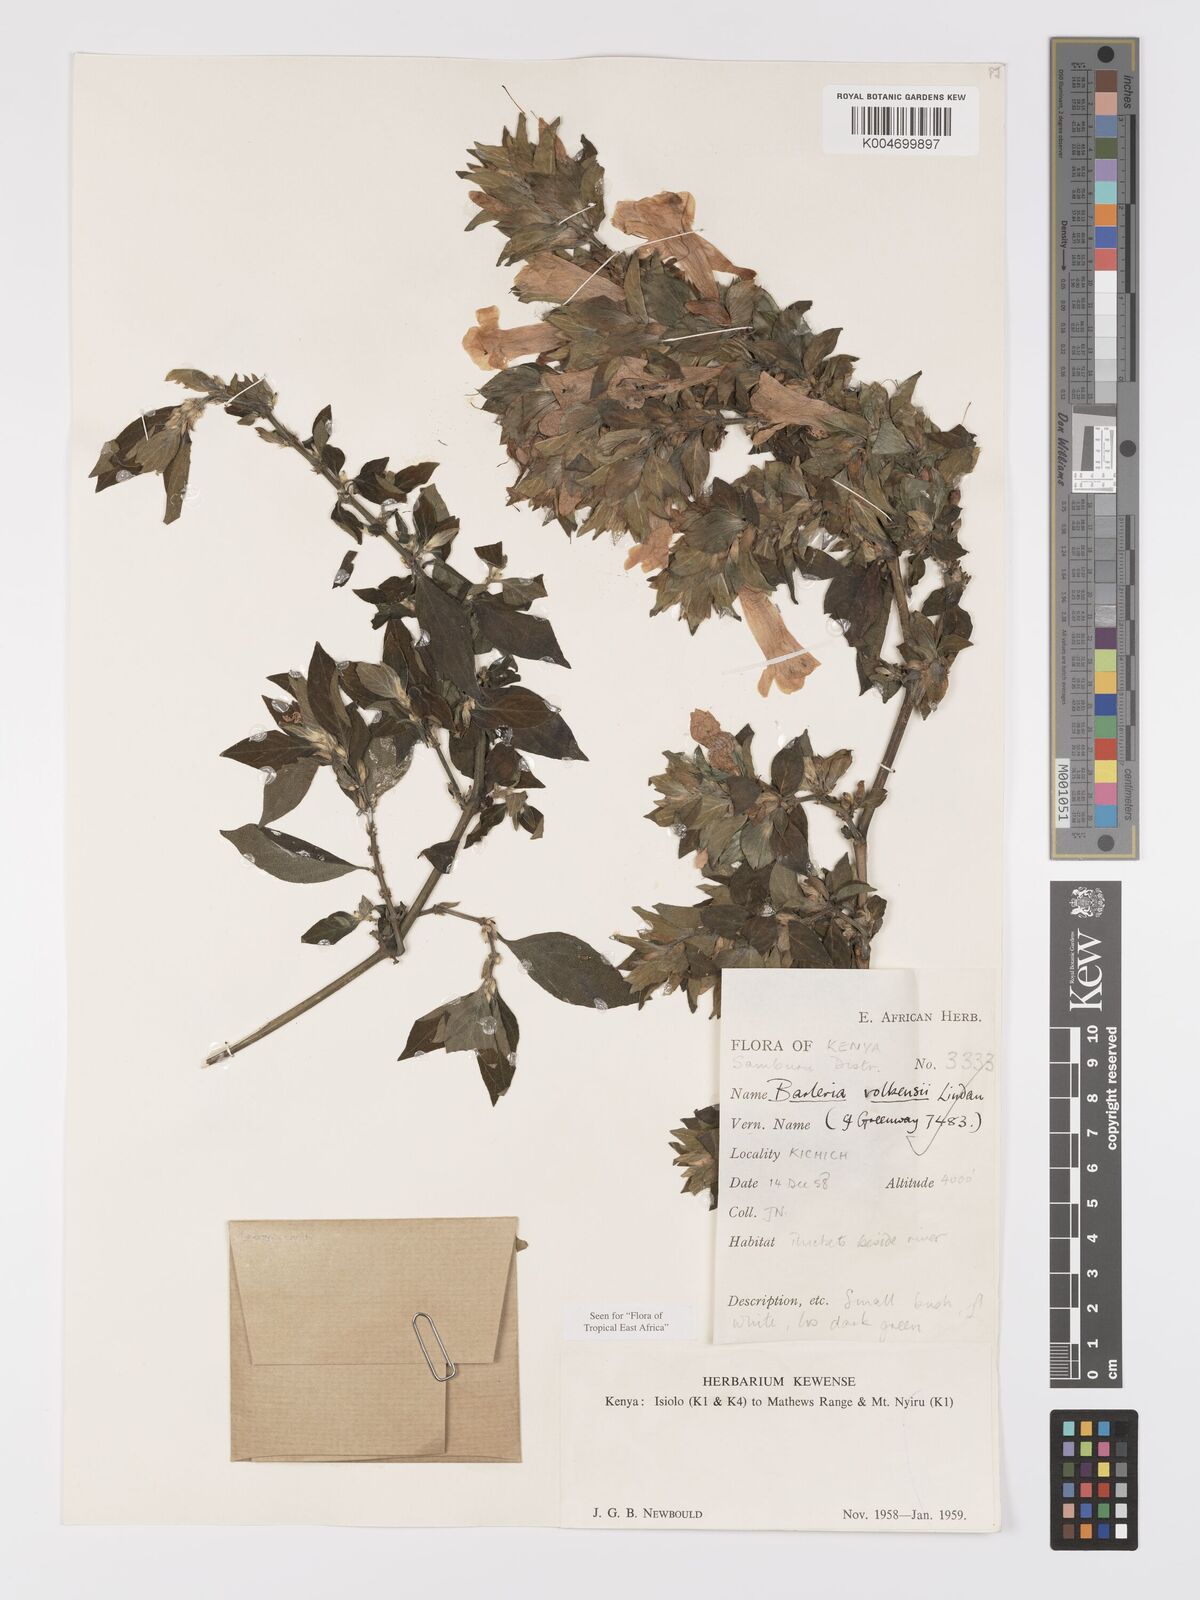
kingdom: Plantae
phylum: Tracheophyta
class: Magnoliopsida
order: Lamiales
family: Acanthaceae
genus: Barleria
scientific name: Barleria volkensii
